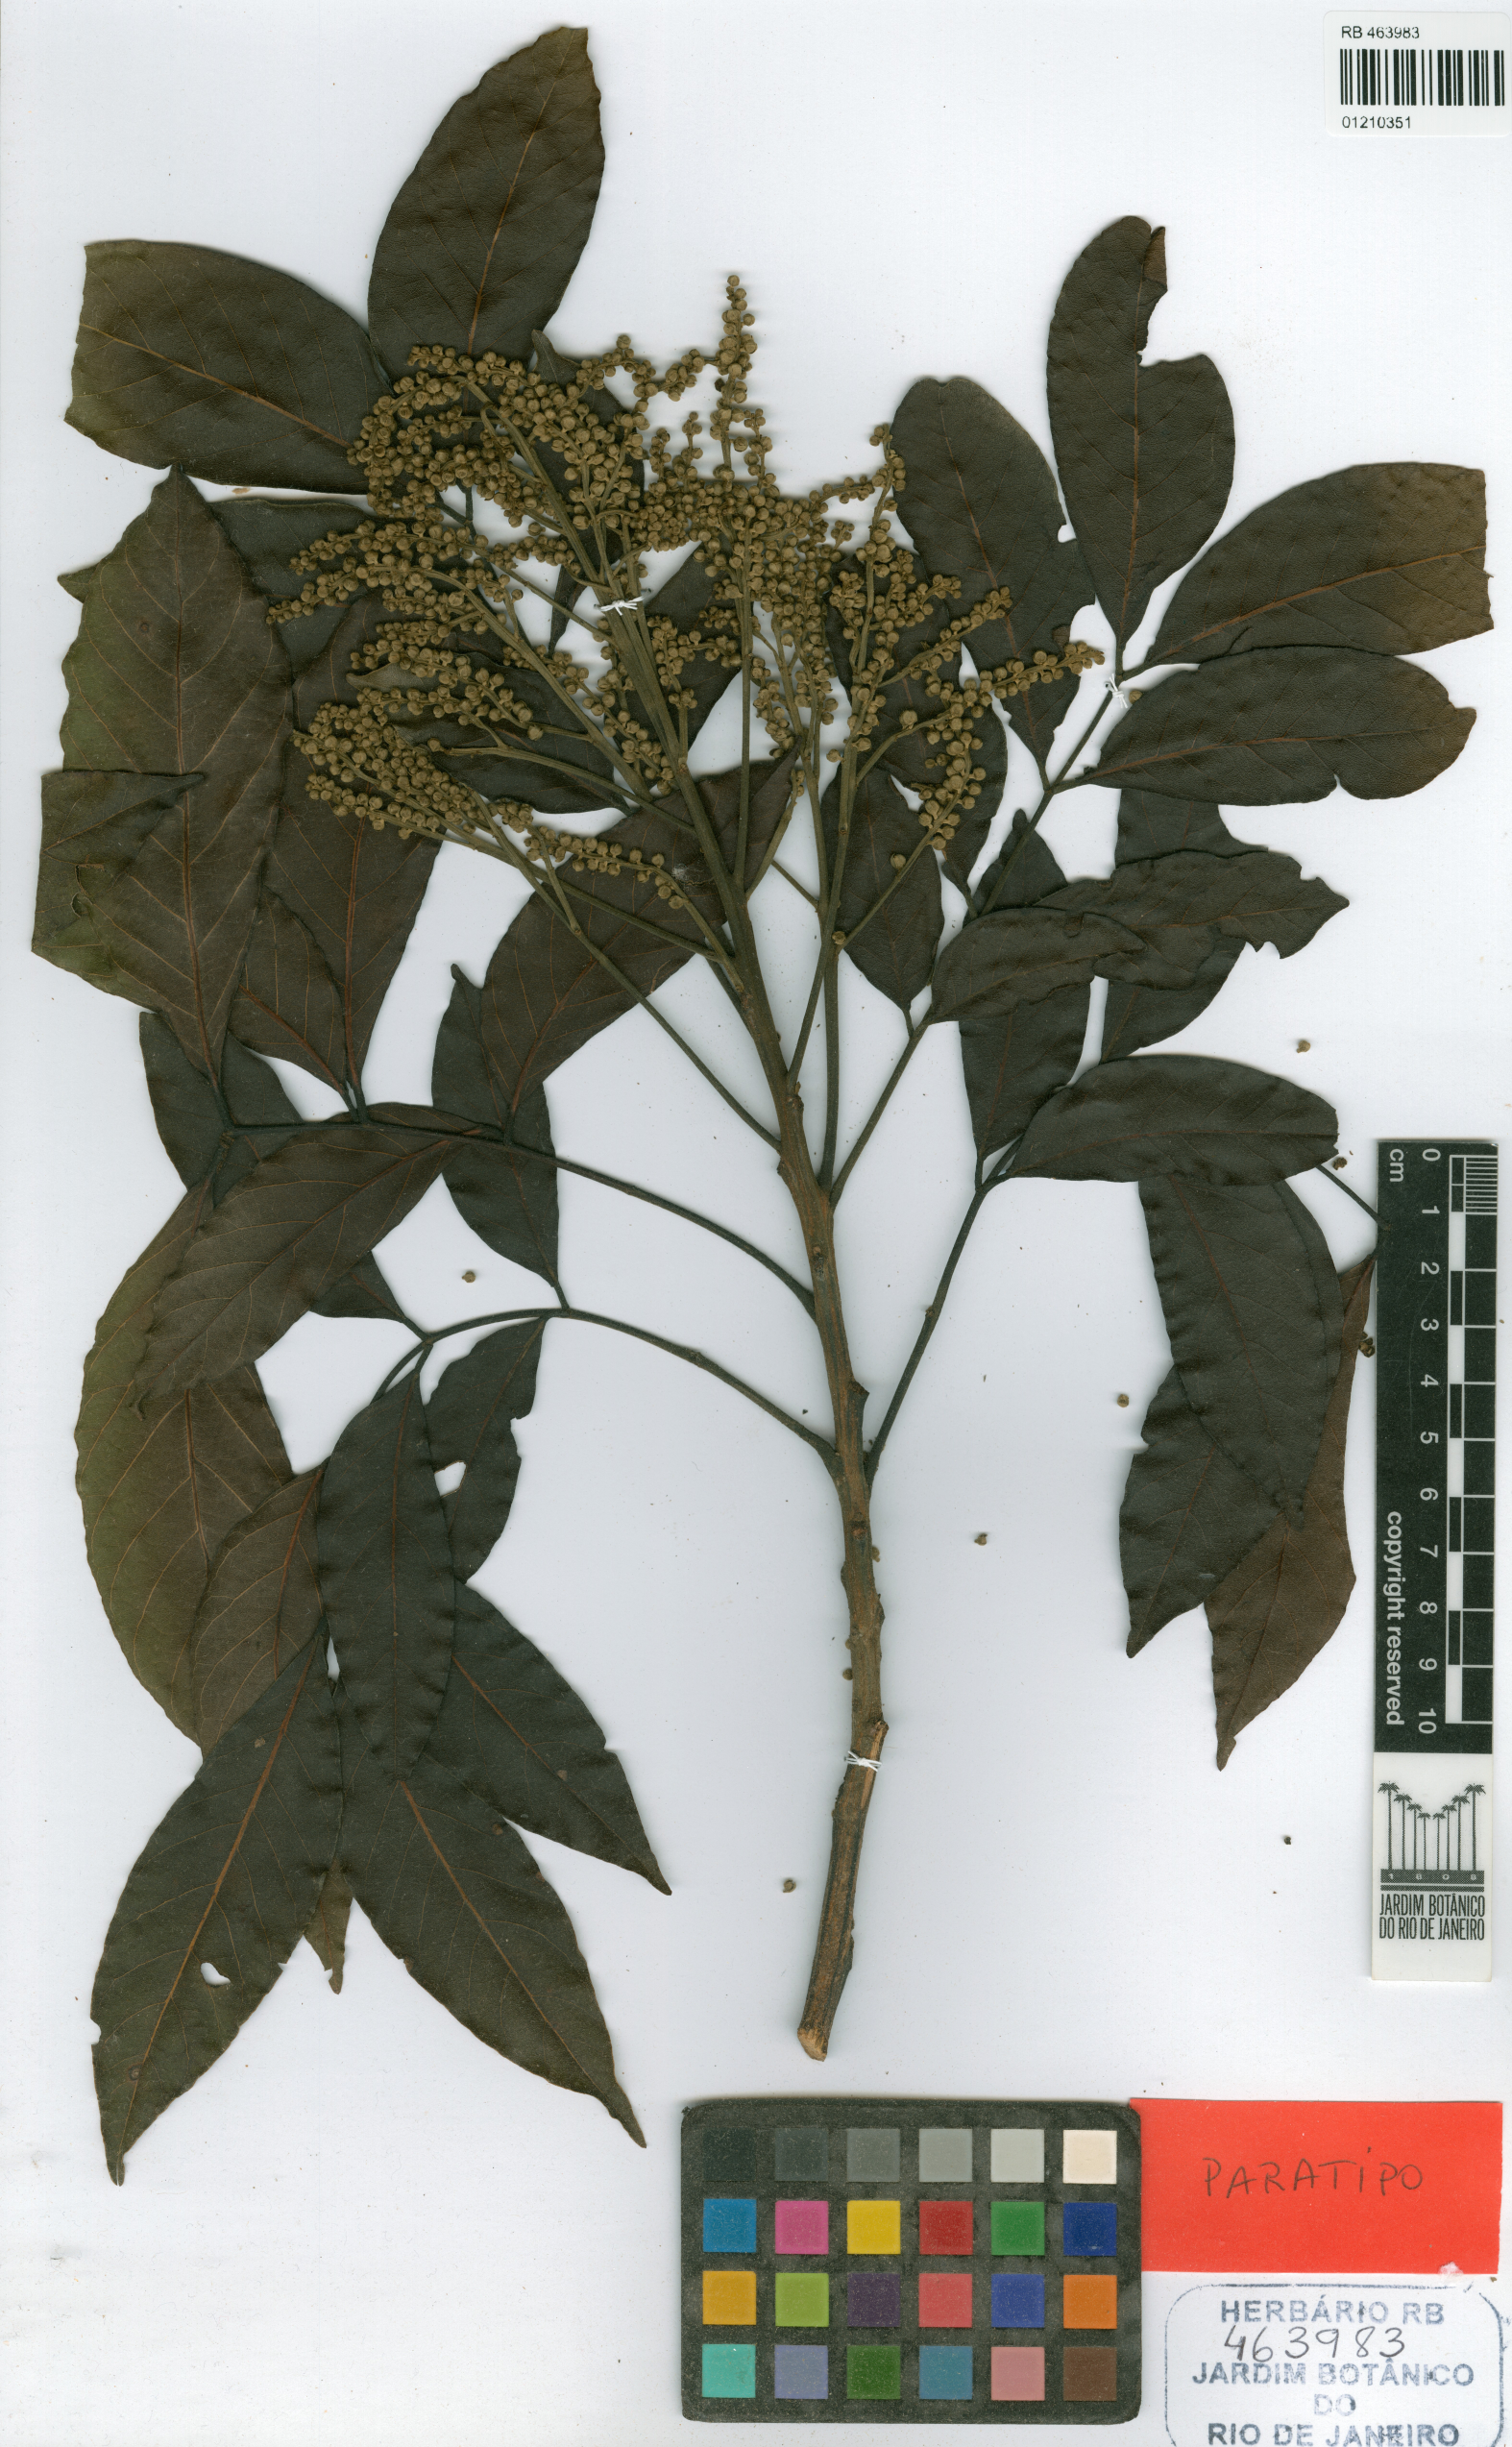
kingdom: Plantae
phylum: Tracheophyta
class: Magnoliopsida
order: Fabales
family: Fabaceae
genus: Tachigali
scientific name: Tachigali spathulipetala
